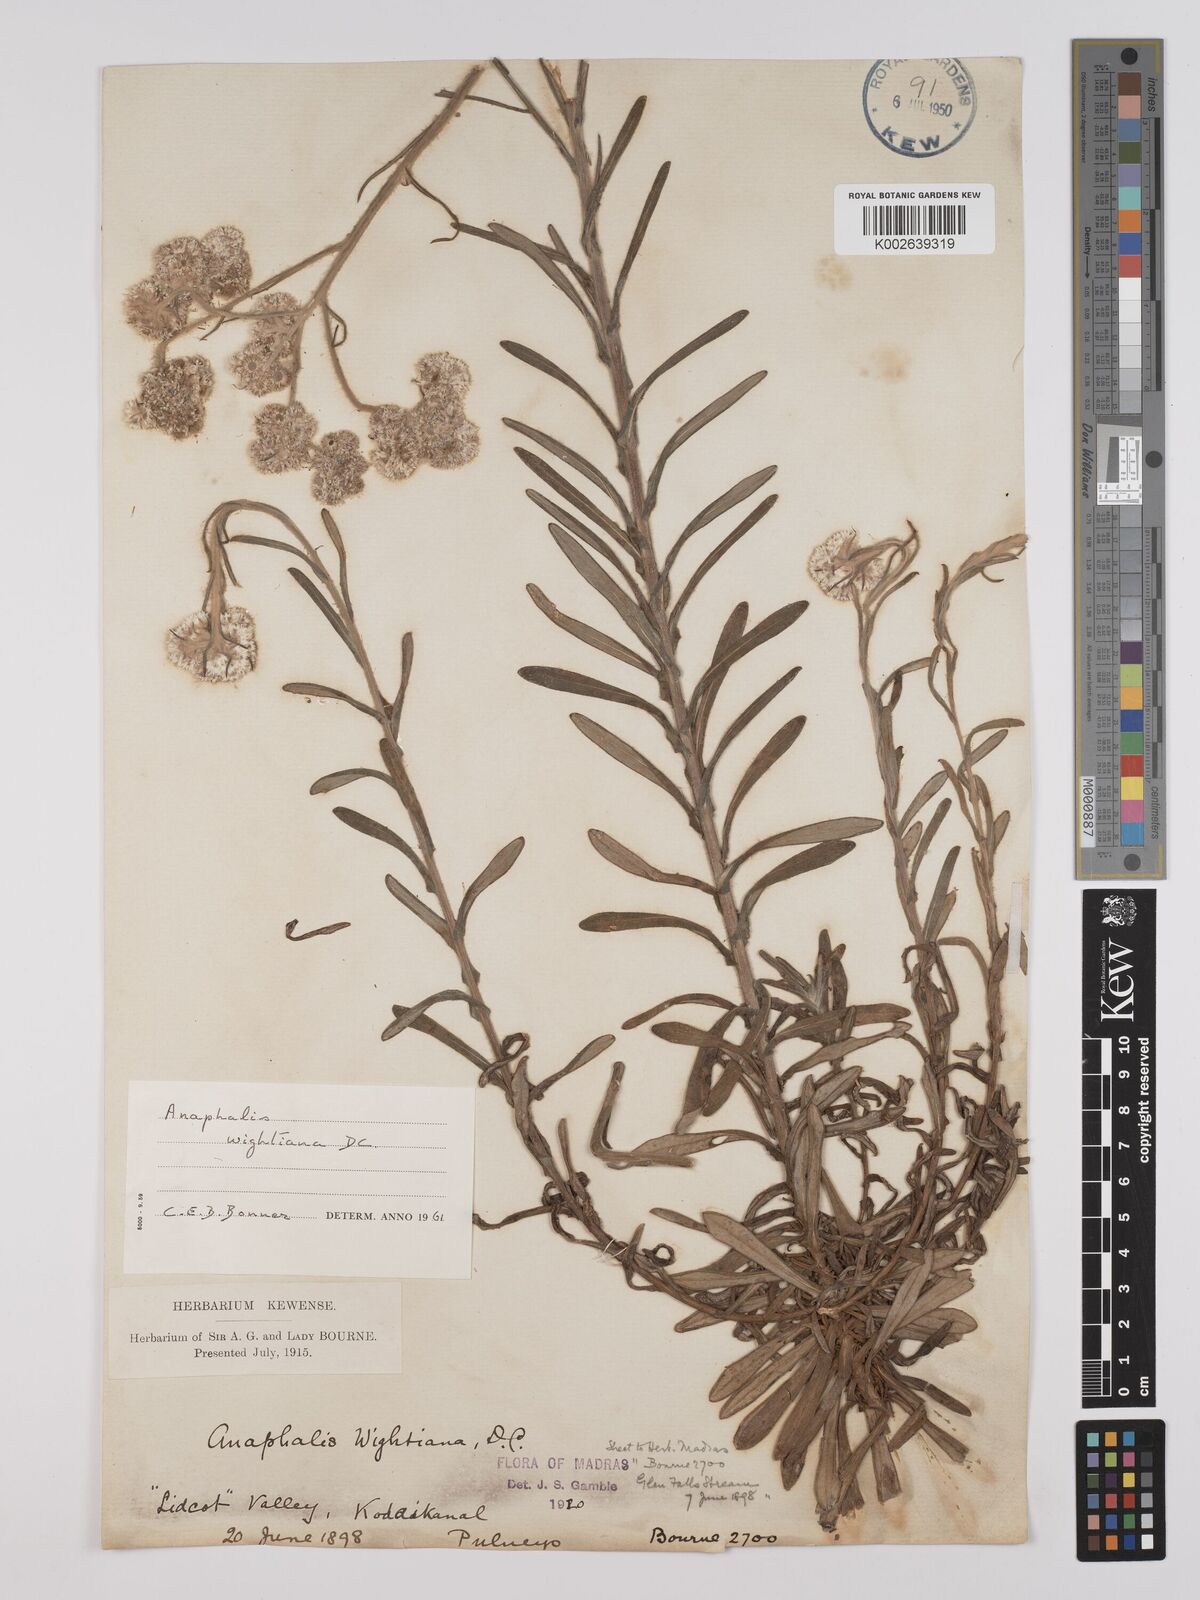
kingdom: Plantae
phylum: Tracheophyta
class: Magnoliopsida
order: Asterales
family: Asteraceae
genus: Anaphalis
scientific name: Anaphalis wightiana
